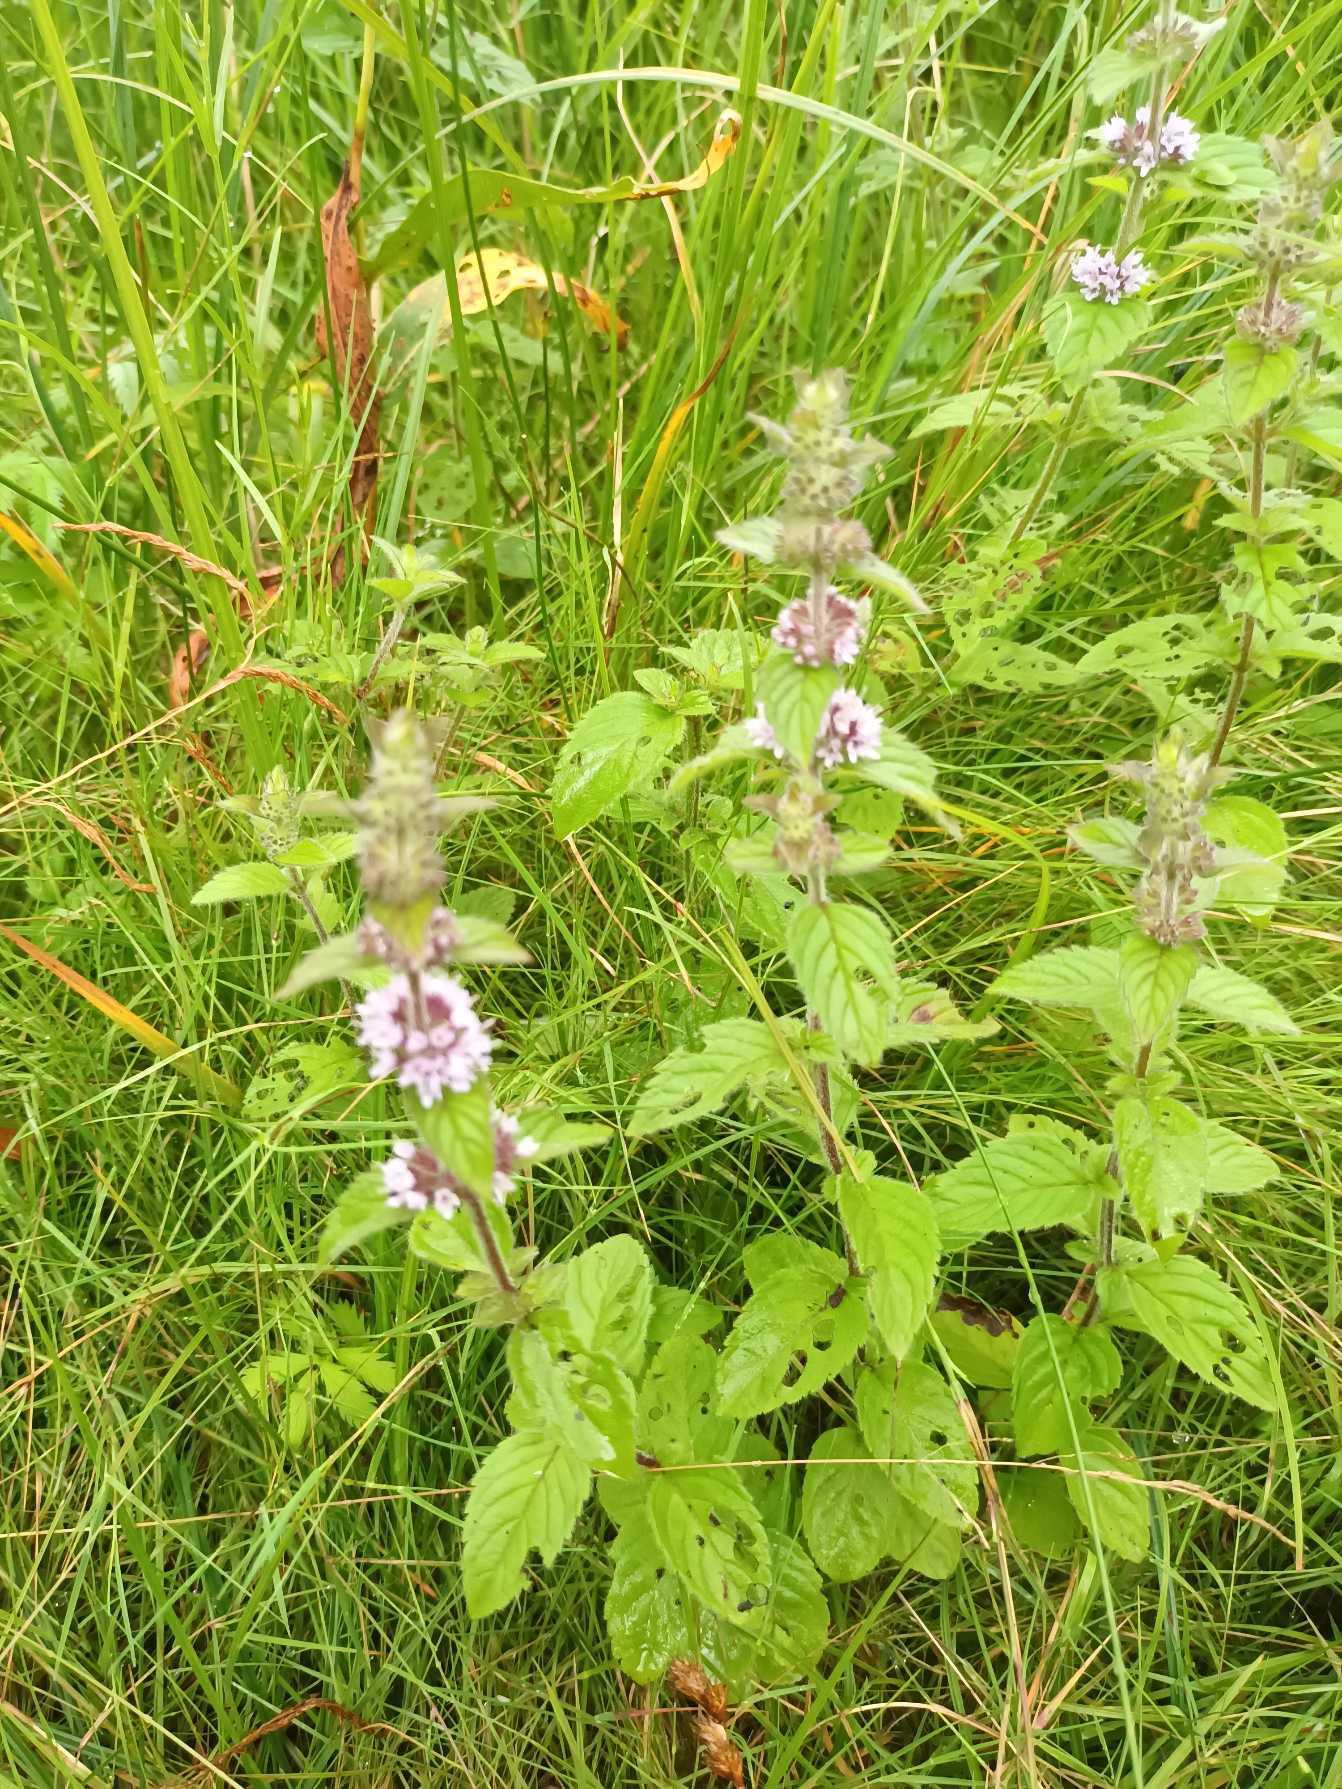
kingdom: Plantae
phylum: Tracheophyta
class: Magnoliopsida
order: Lamiales
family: Lamiaceae
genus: Mentha
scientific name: Mentha verticillata
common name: Krans-mynte
